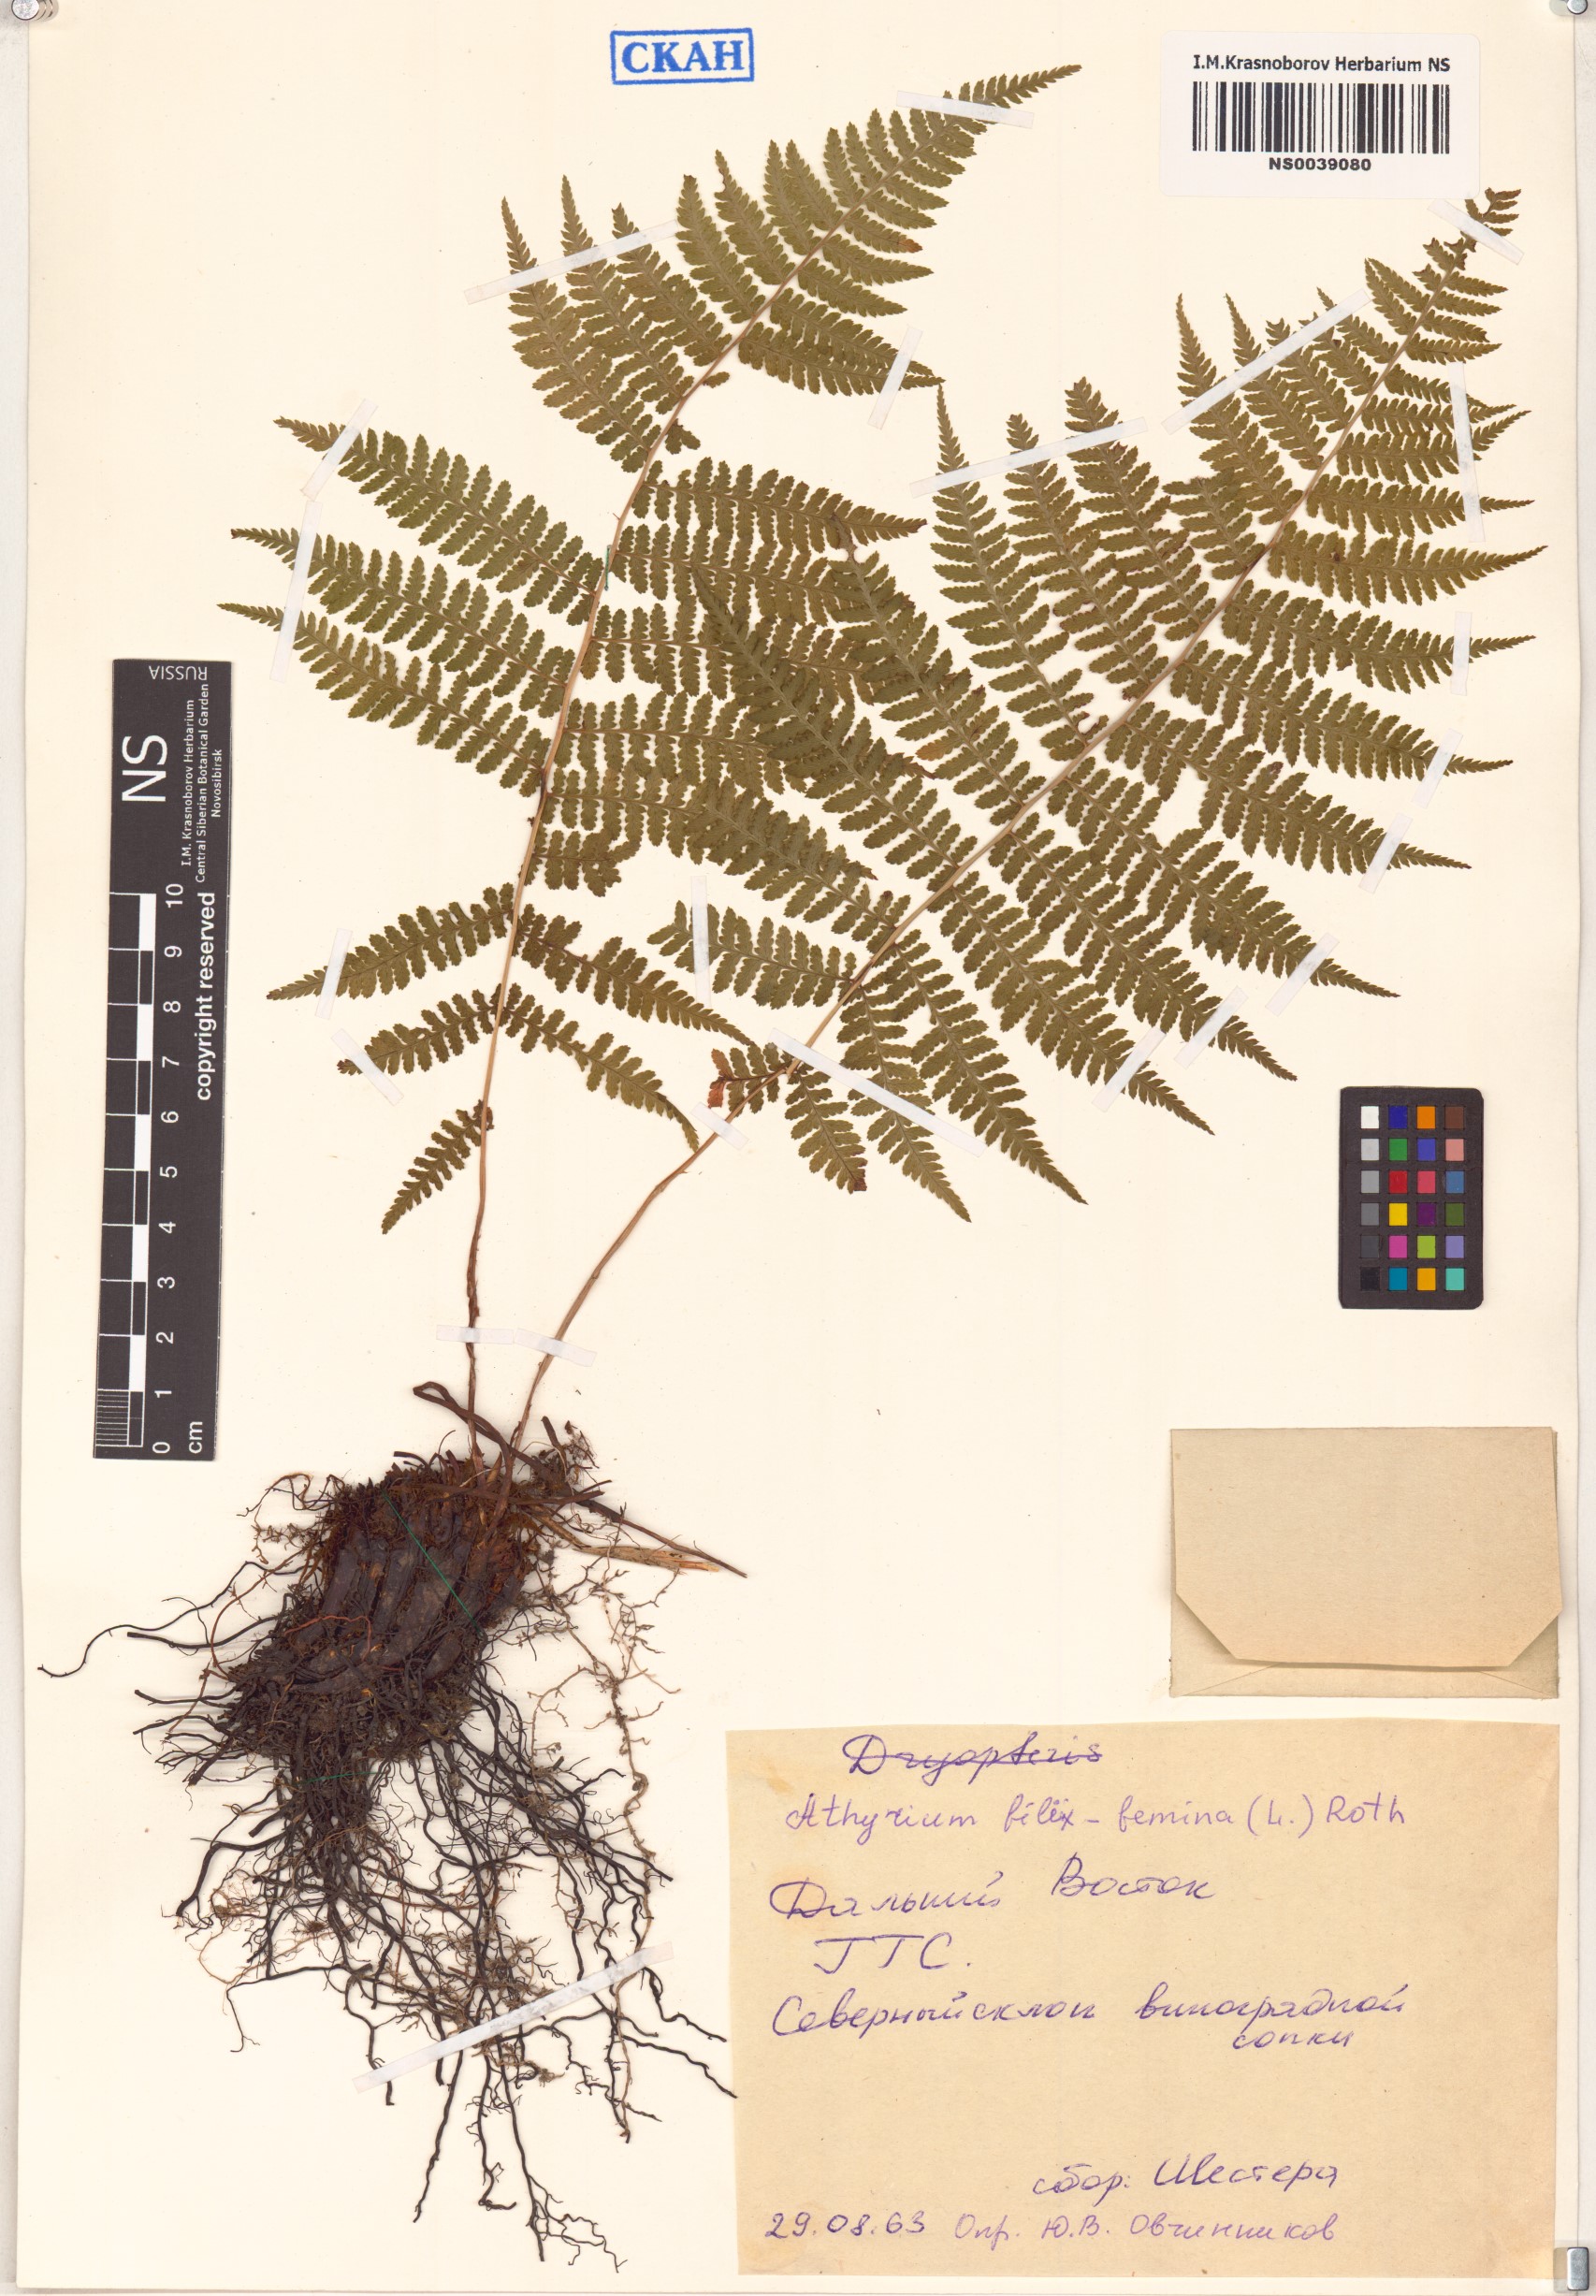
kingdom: Plantae
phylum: Tracheophyta
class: Polypodiopsida
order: Polypodiales
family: Athyriaceae
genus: Athyrium
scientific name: Athyrium filix-femina
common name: Lady fern
